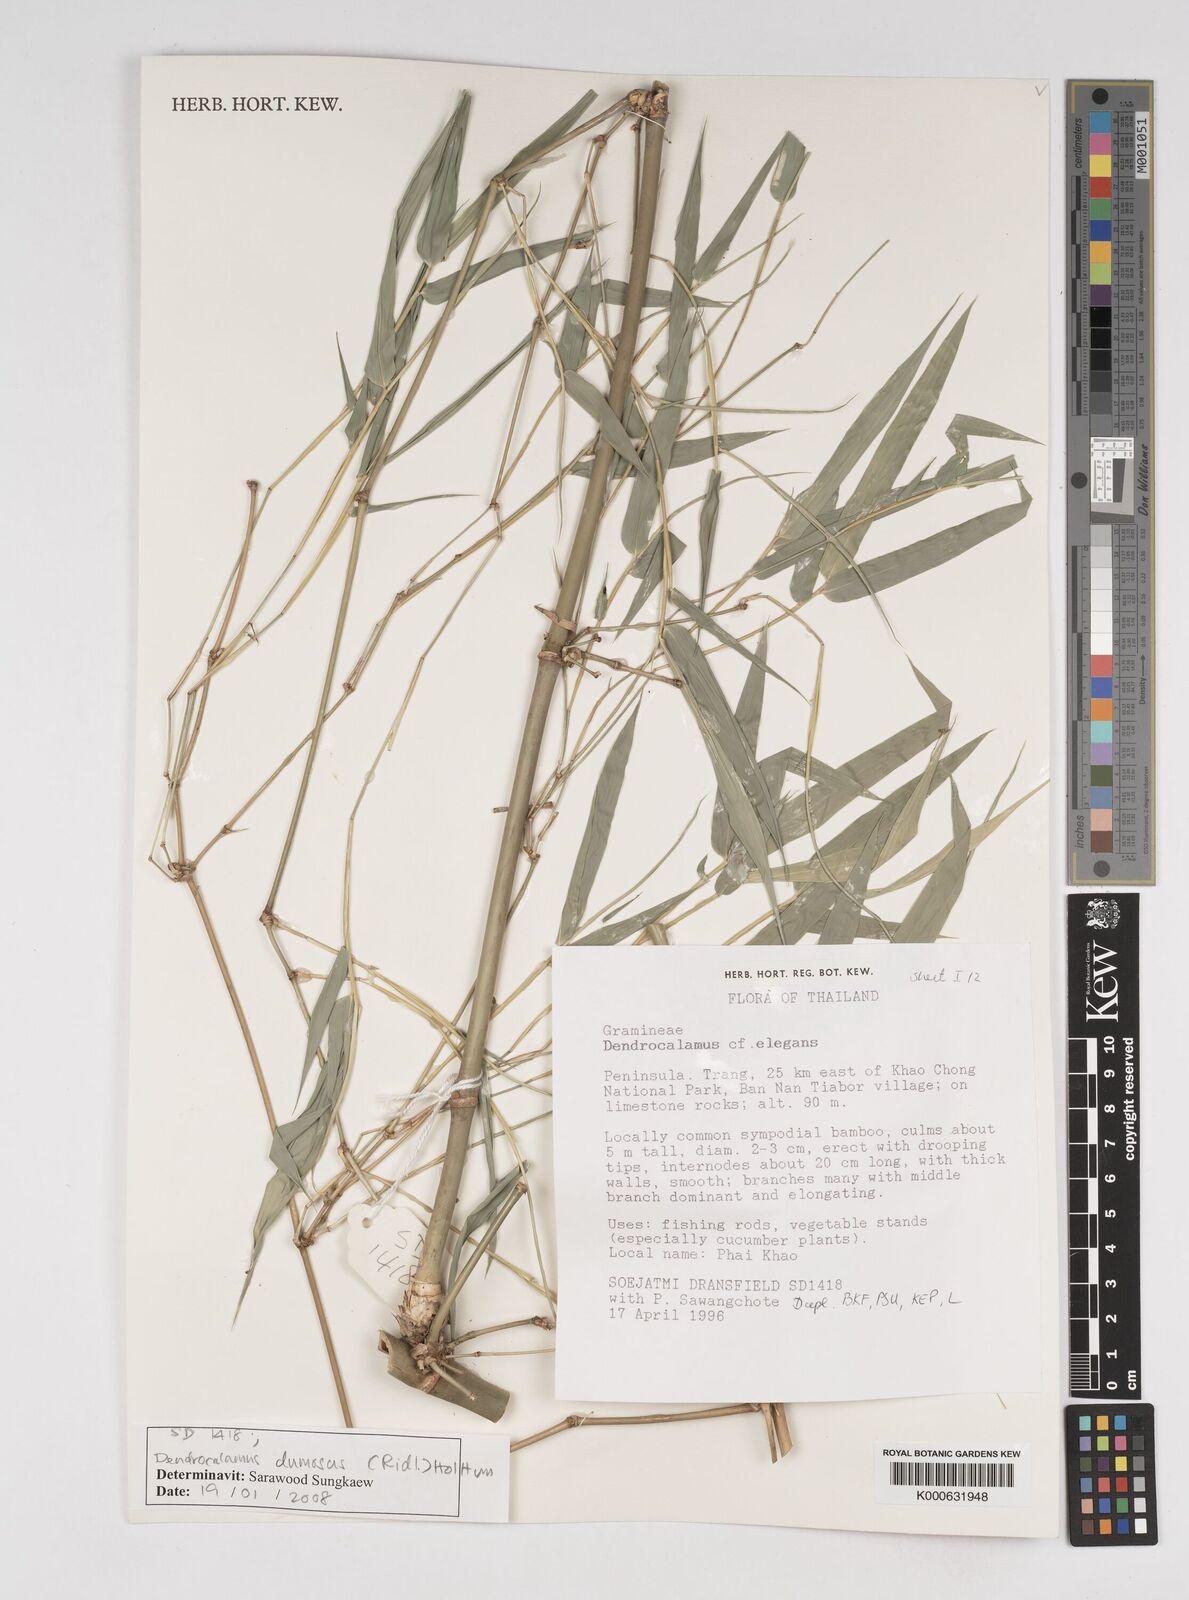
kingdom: Plantae
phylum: Tracheophyta
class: Liliopsida
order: Poales
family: Poaceae
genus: Dendrocalamus
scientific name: Dendrocalamus brandisii
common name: Velvetleaf bamboo
